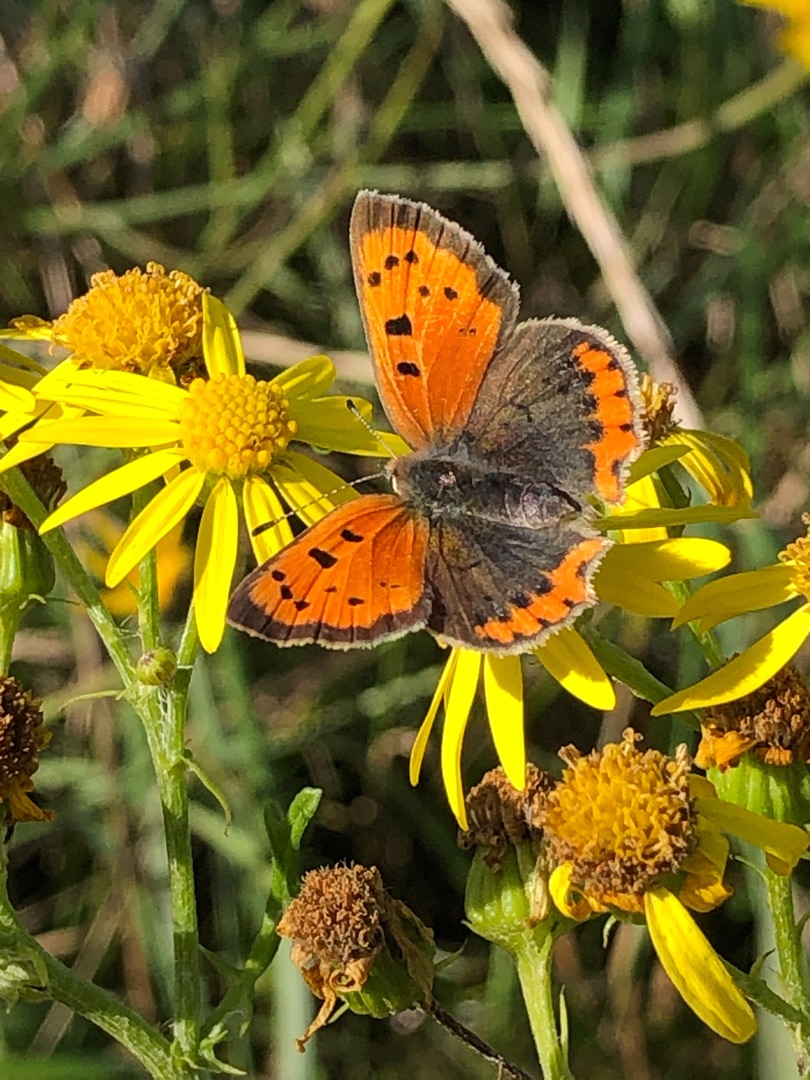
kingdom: Animalia
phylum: Arthropoda
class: Insecta
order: Lepidoptera
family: Lycaenidae
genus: Lycaena
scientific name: Lycaena phlaeas
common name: Lille ildfugl
